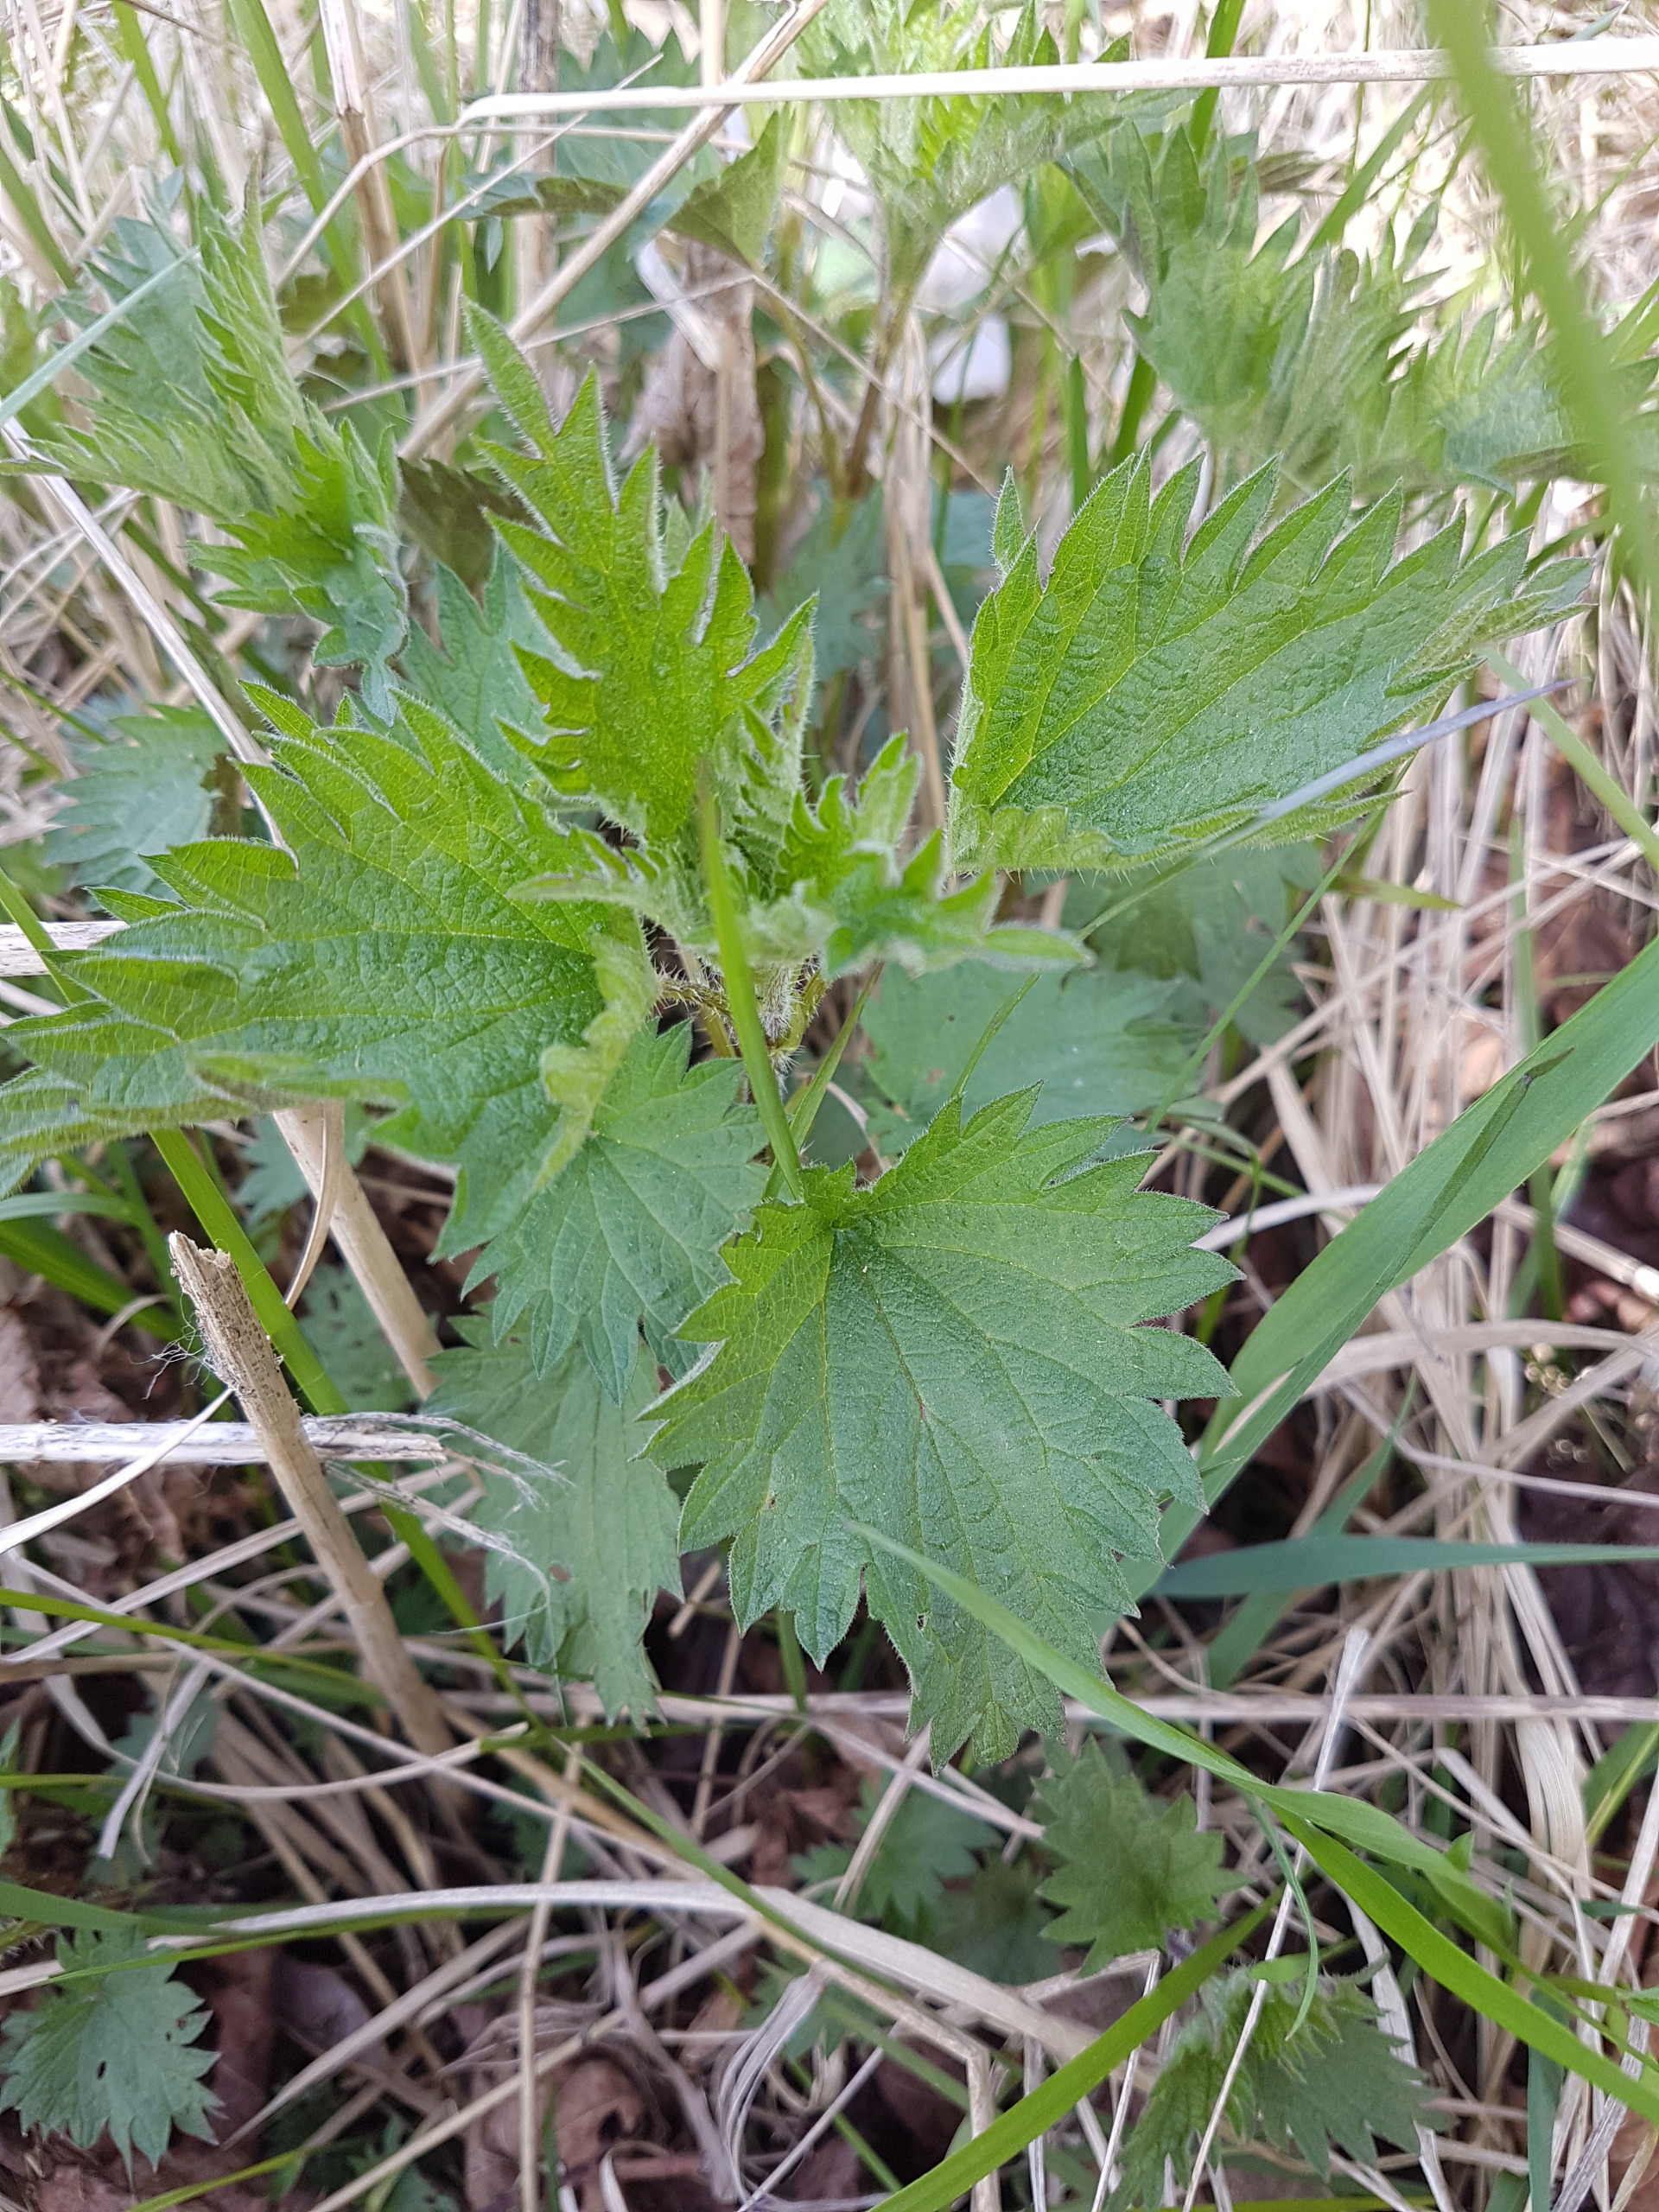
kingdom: Plantae
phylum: Tracheophyta
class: Magnoliopsida
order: Rosales
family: Urticaceae
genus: Urtica
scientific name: Urtica dioica
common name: Stor nælde
